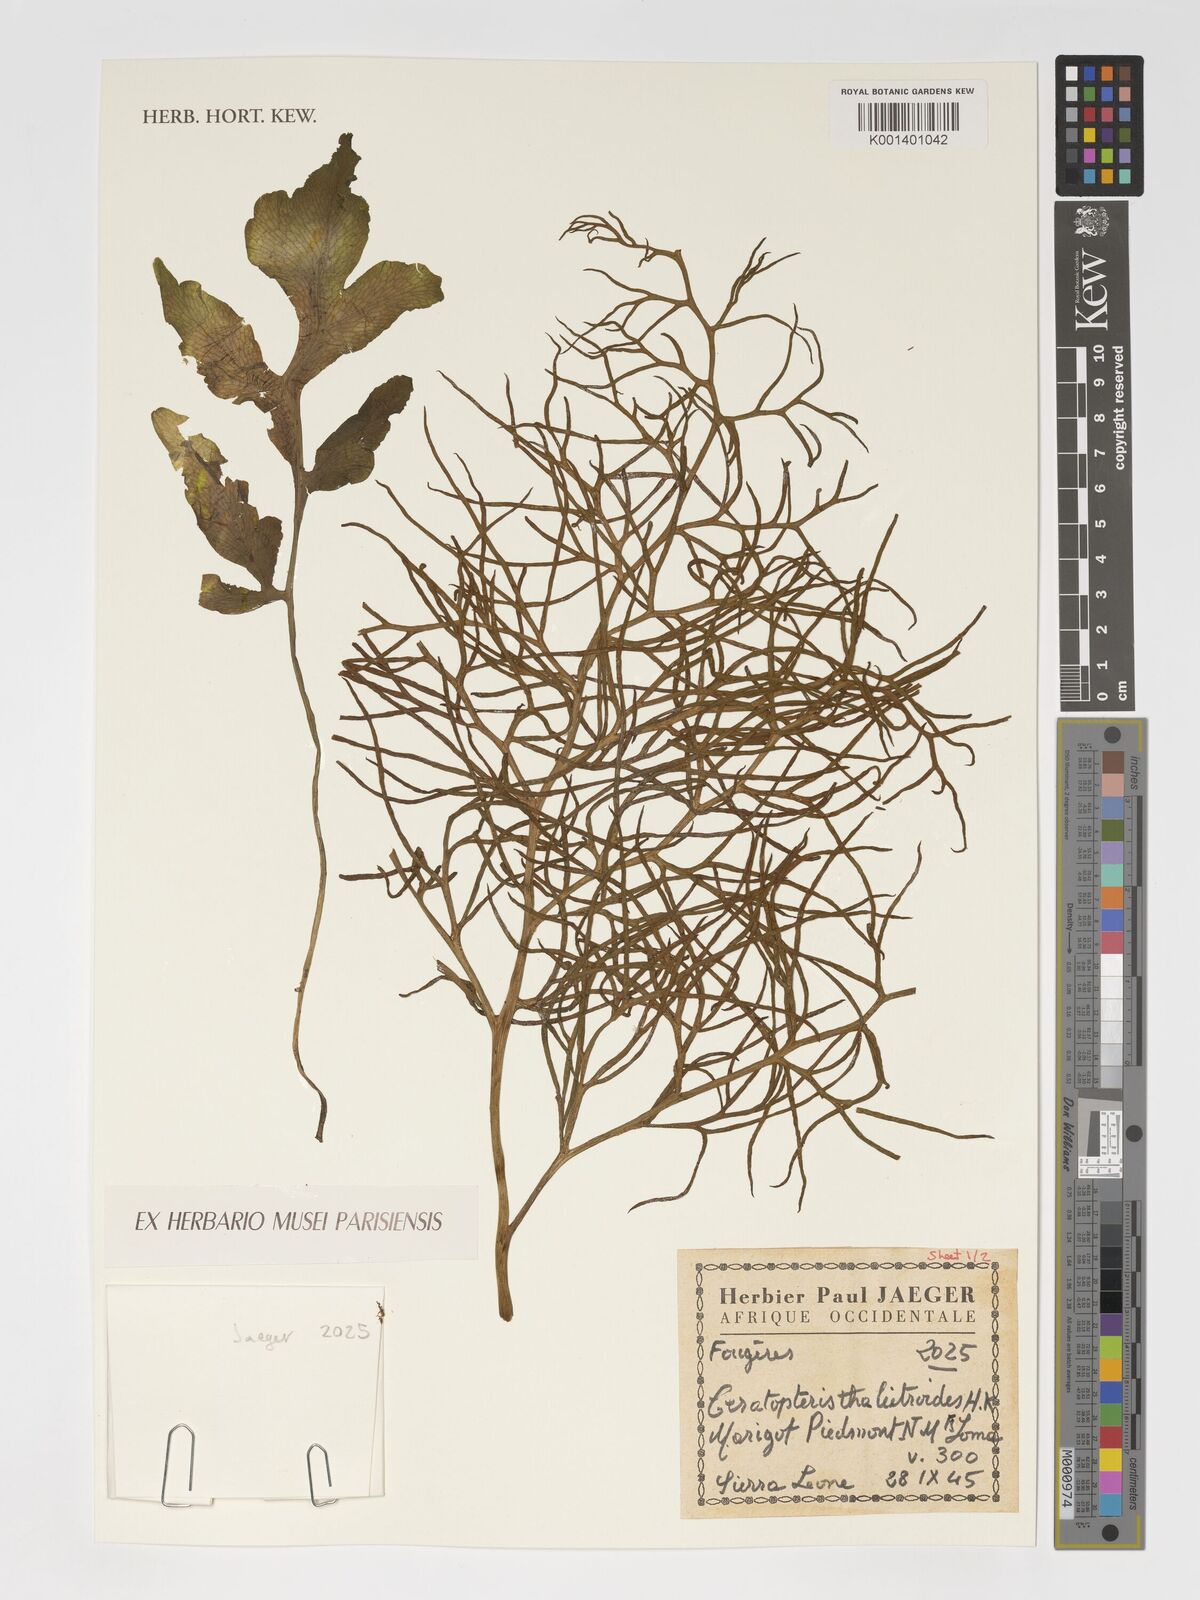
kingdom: Plantae
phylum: Tracheophyta
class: Polypodiopsida
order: Polypodiales
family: Pteridaceae
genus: Ceratopteris
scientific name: Ceratopteris thalictroides
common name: Water fern
